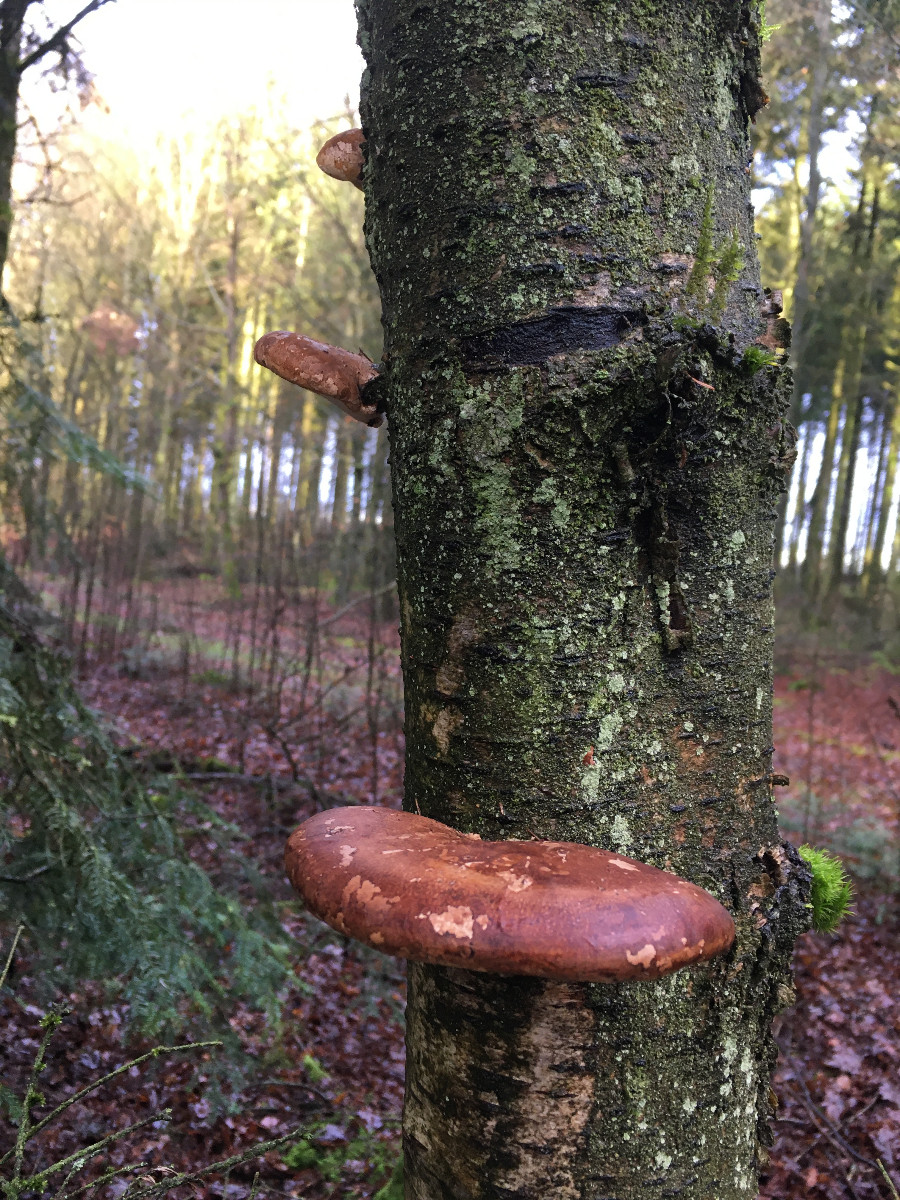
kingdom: Fungi
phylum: Basidiomycota
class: Agaricomycetes
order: Polyporales
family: Fomitopsidaceae
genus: Fomitopsis
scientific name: Fomitopsis betulina
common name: birkeporesvamp
